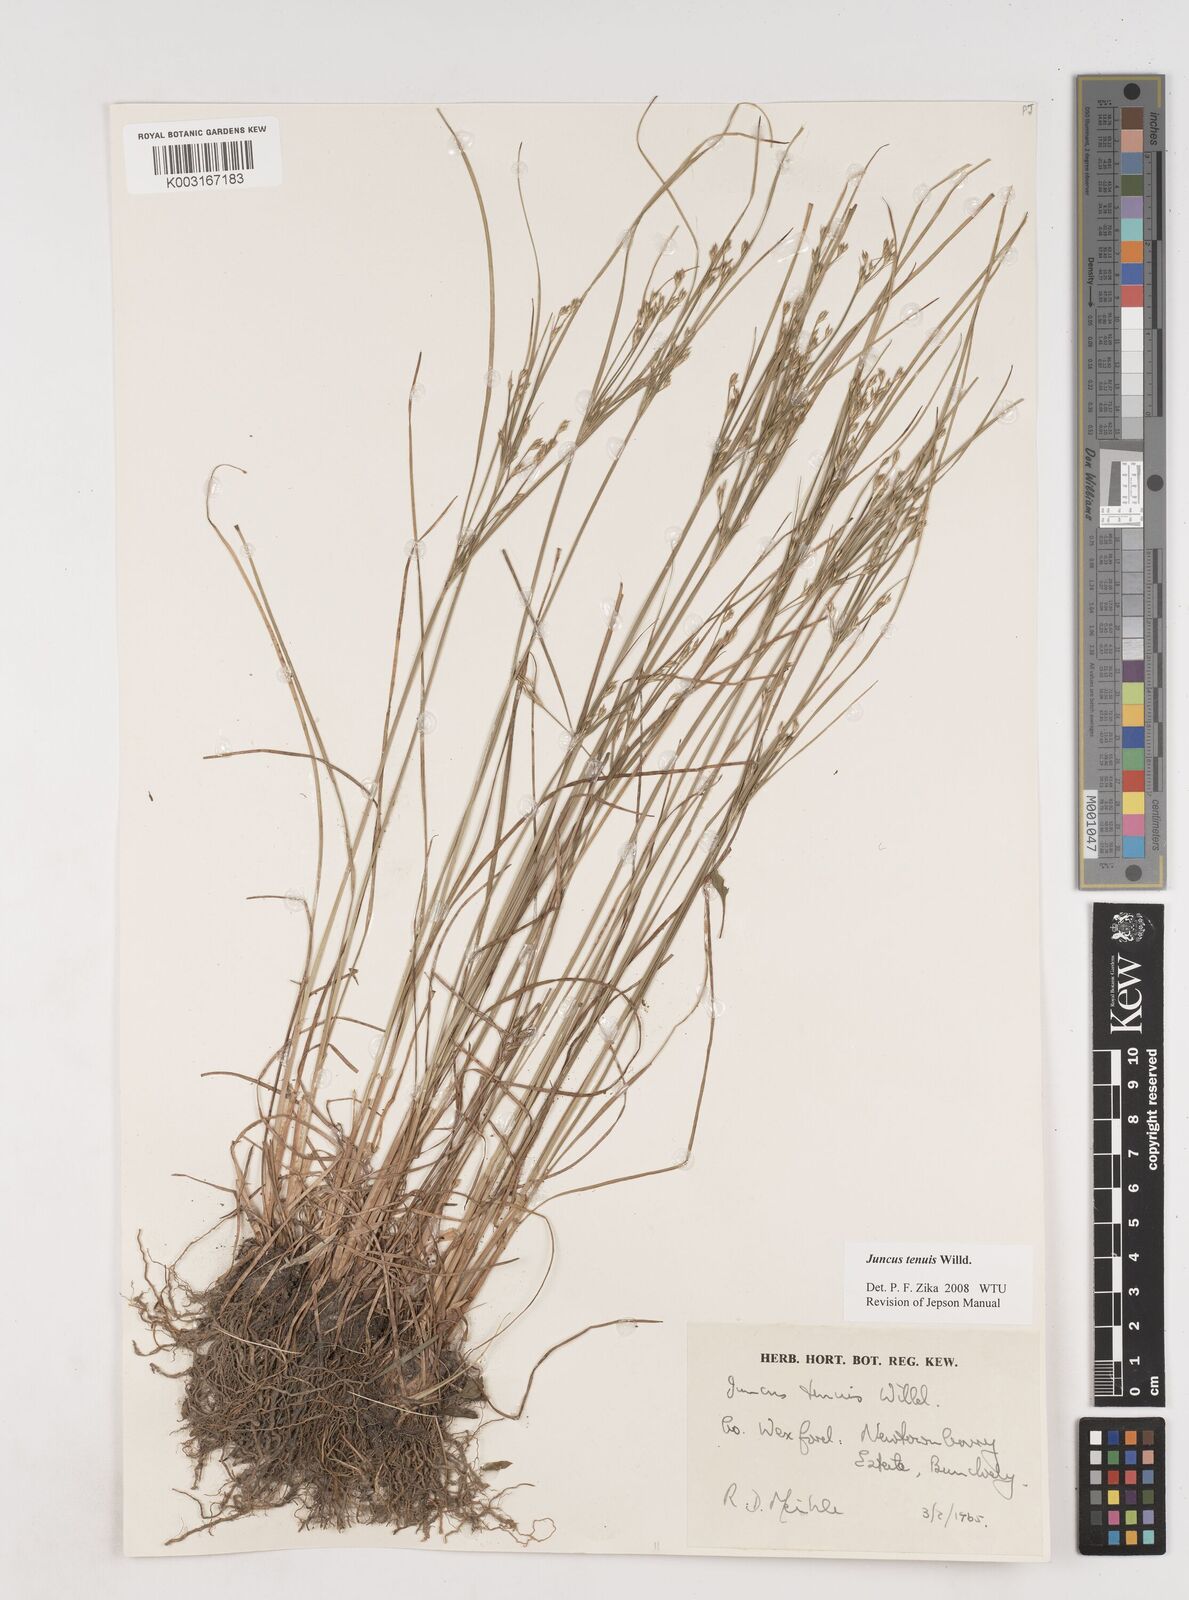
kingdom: Plantae
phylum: Tracheophyta
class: Liliopsida
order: Poales
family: Juncaceae
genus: Juncus
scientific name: Juncus tenuis
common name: Slender rush
